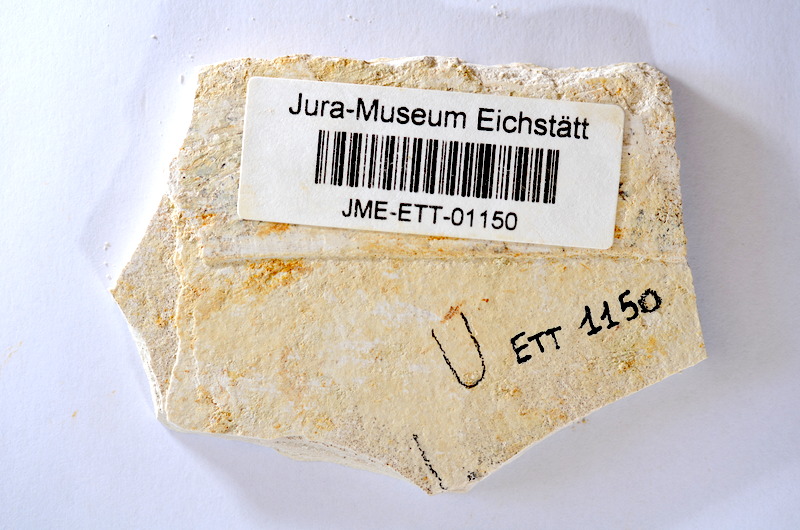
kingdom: Animalia
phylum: Chordata
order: Salmoniformes
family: Orthogonikleithridae
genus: Orthogonikleithrus
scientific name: Orthogonikleithrus hoelli
